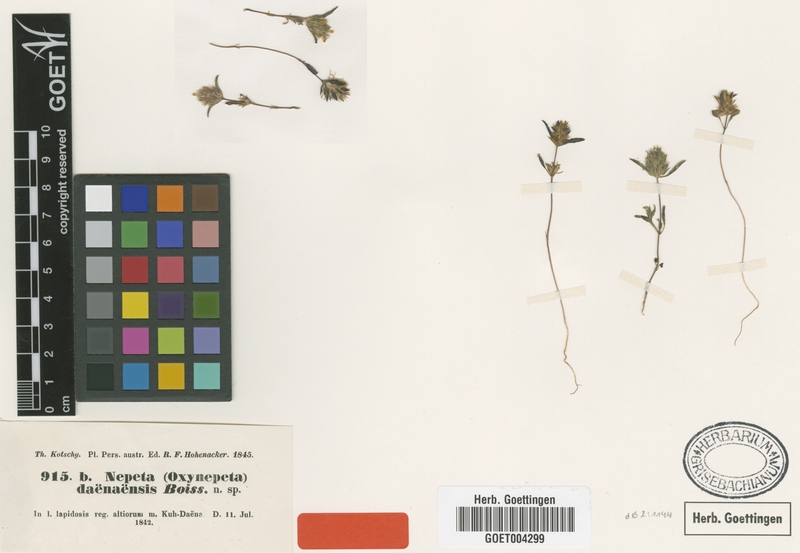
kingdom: Plantae
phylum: Tracheophyta
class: Magnoliopsida
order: Lamiales
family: Lamiaceae
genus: Nepeta
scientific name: Nepeta daenensis
